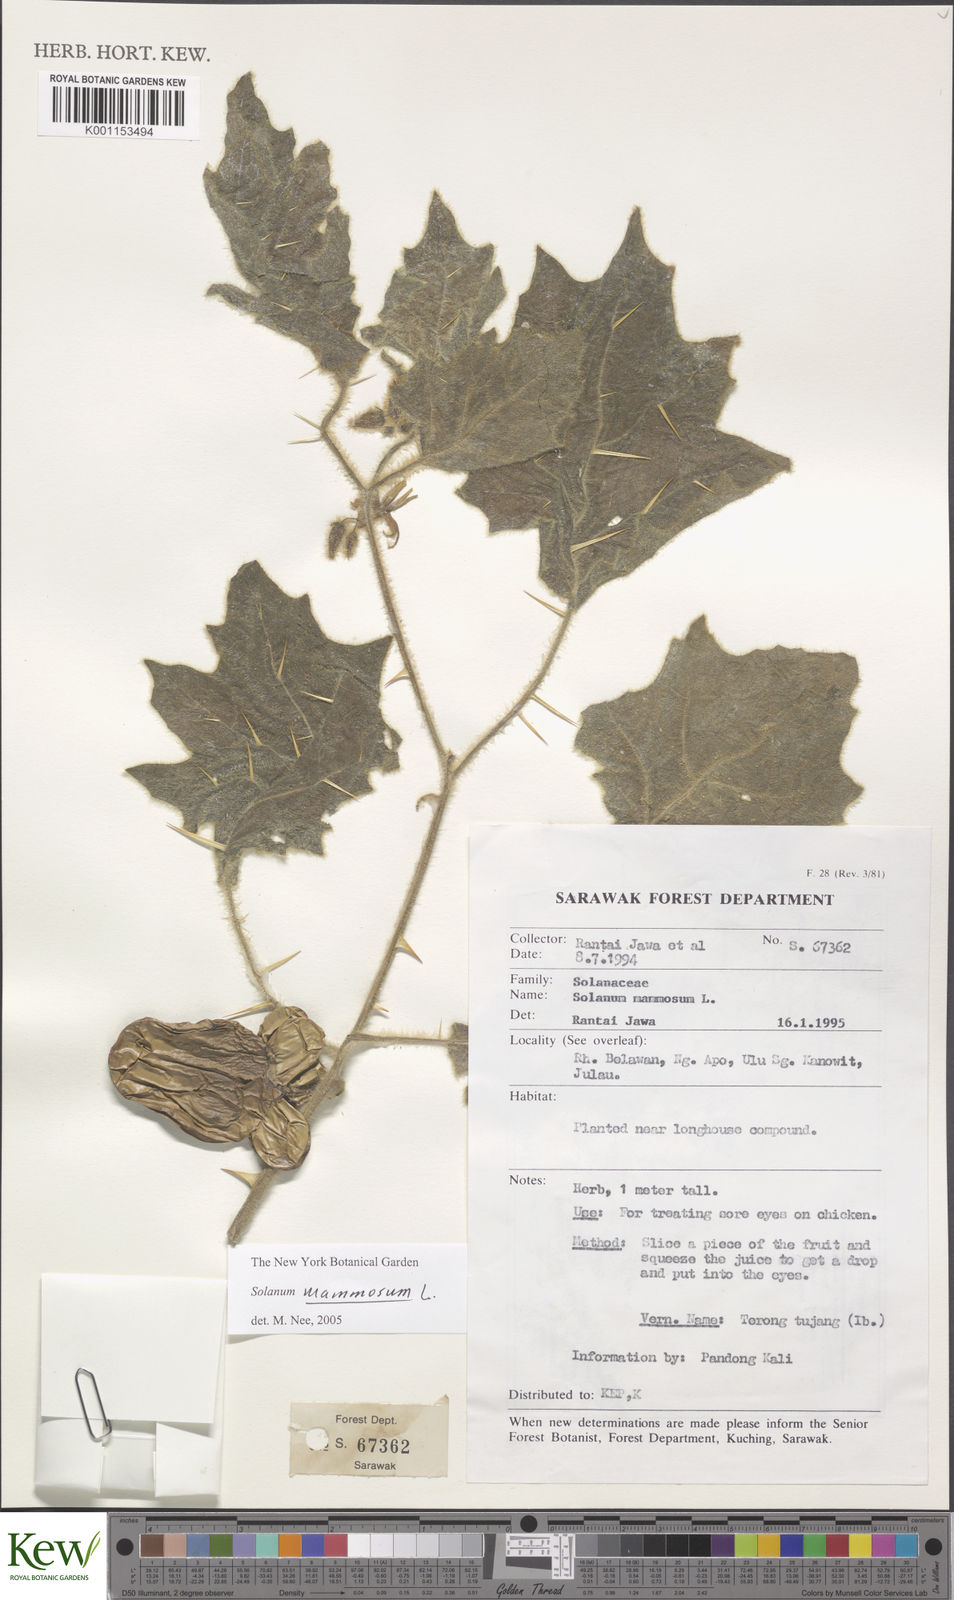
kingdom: Plantae
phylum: Tracheophyta
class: Magnoliopsida
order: Solanales
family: Solanaceae
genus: Solanum
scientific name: Solanum mammosum
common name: Nipple fruit
